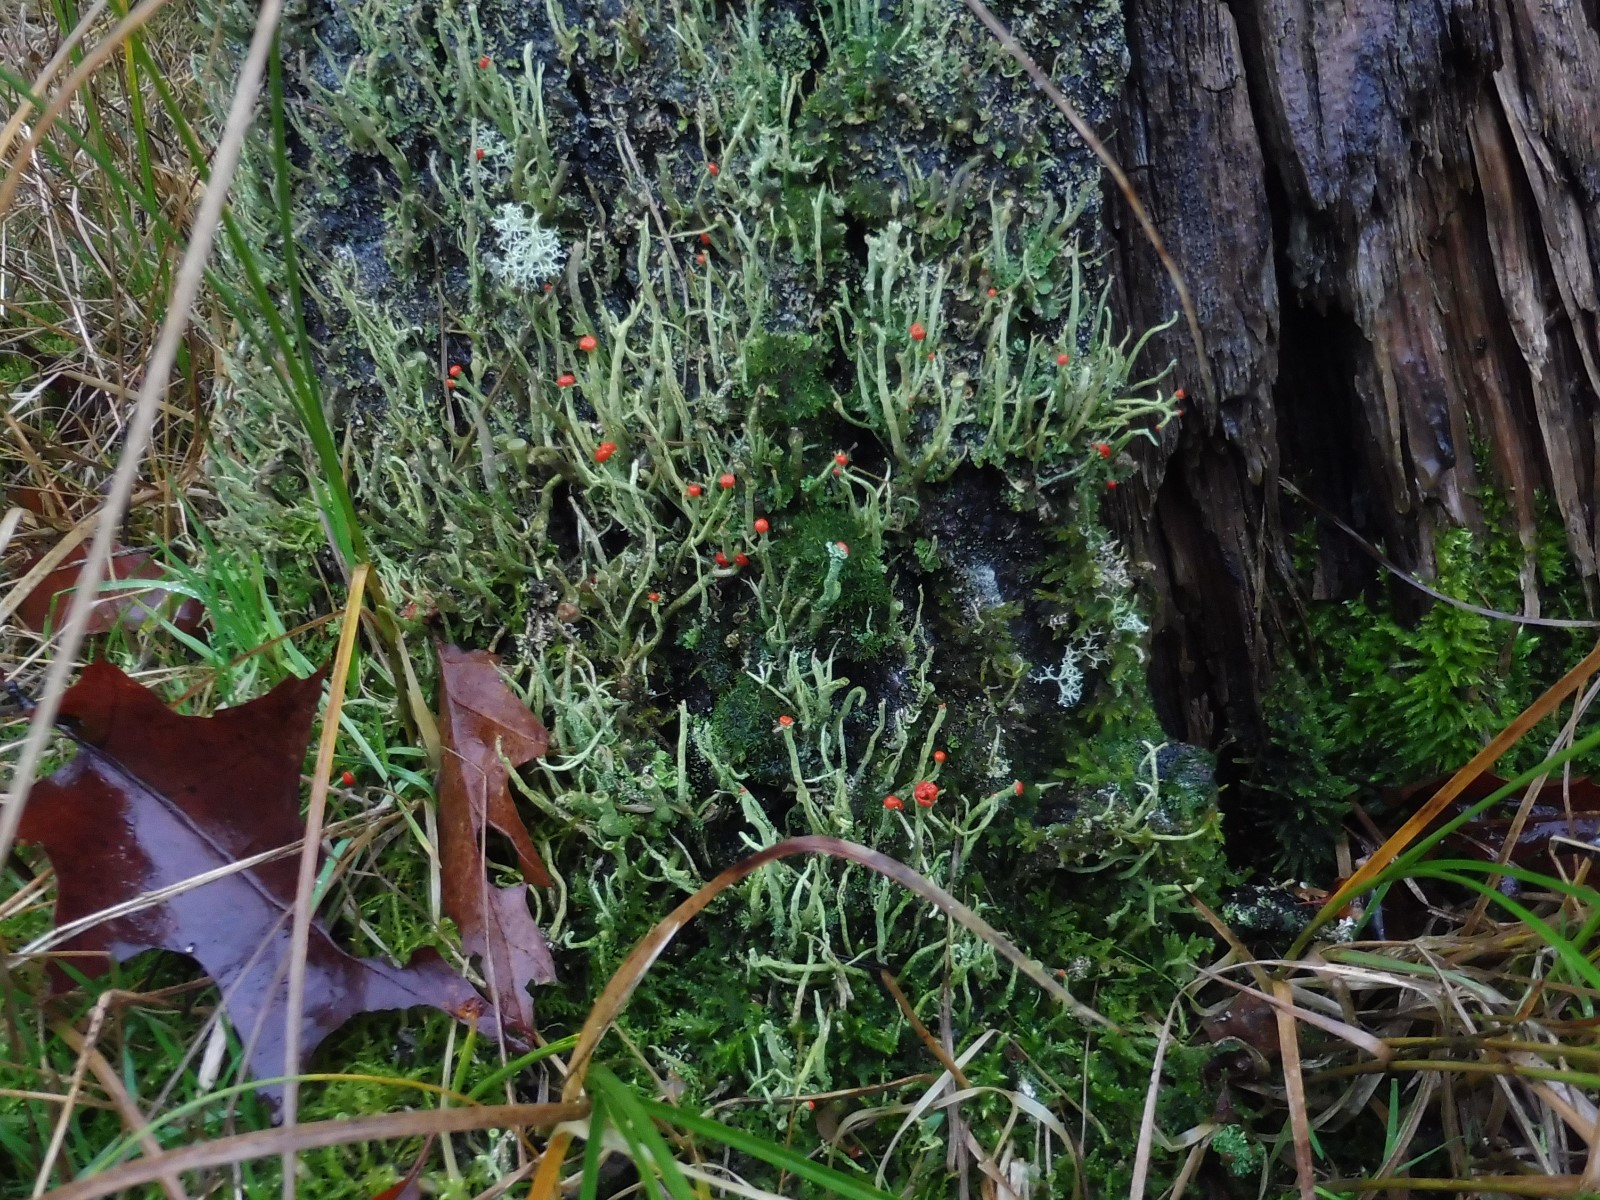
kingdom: Fungi
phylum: Ascomycota
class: Lecanoromycetes
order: Lecanorales
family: Cladoniaceae
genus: Cladonia
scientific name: Cladonia macilenta
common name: indsvunden bægerlav
